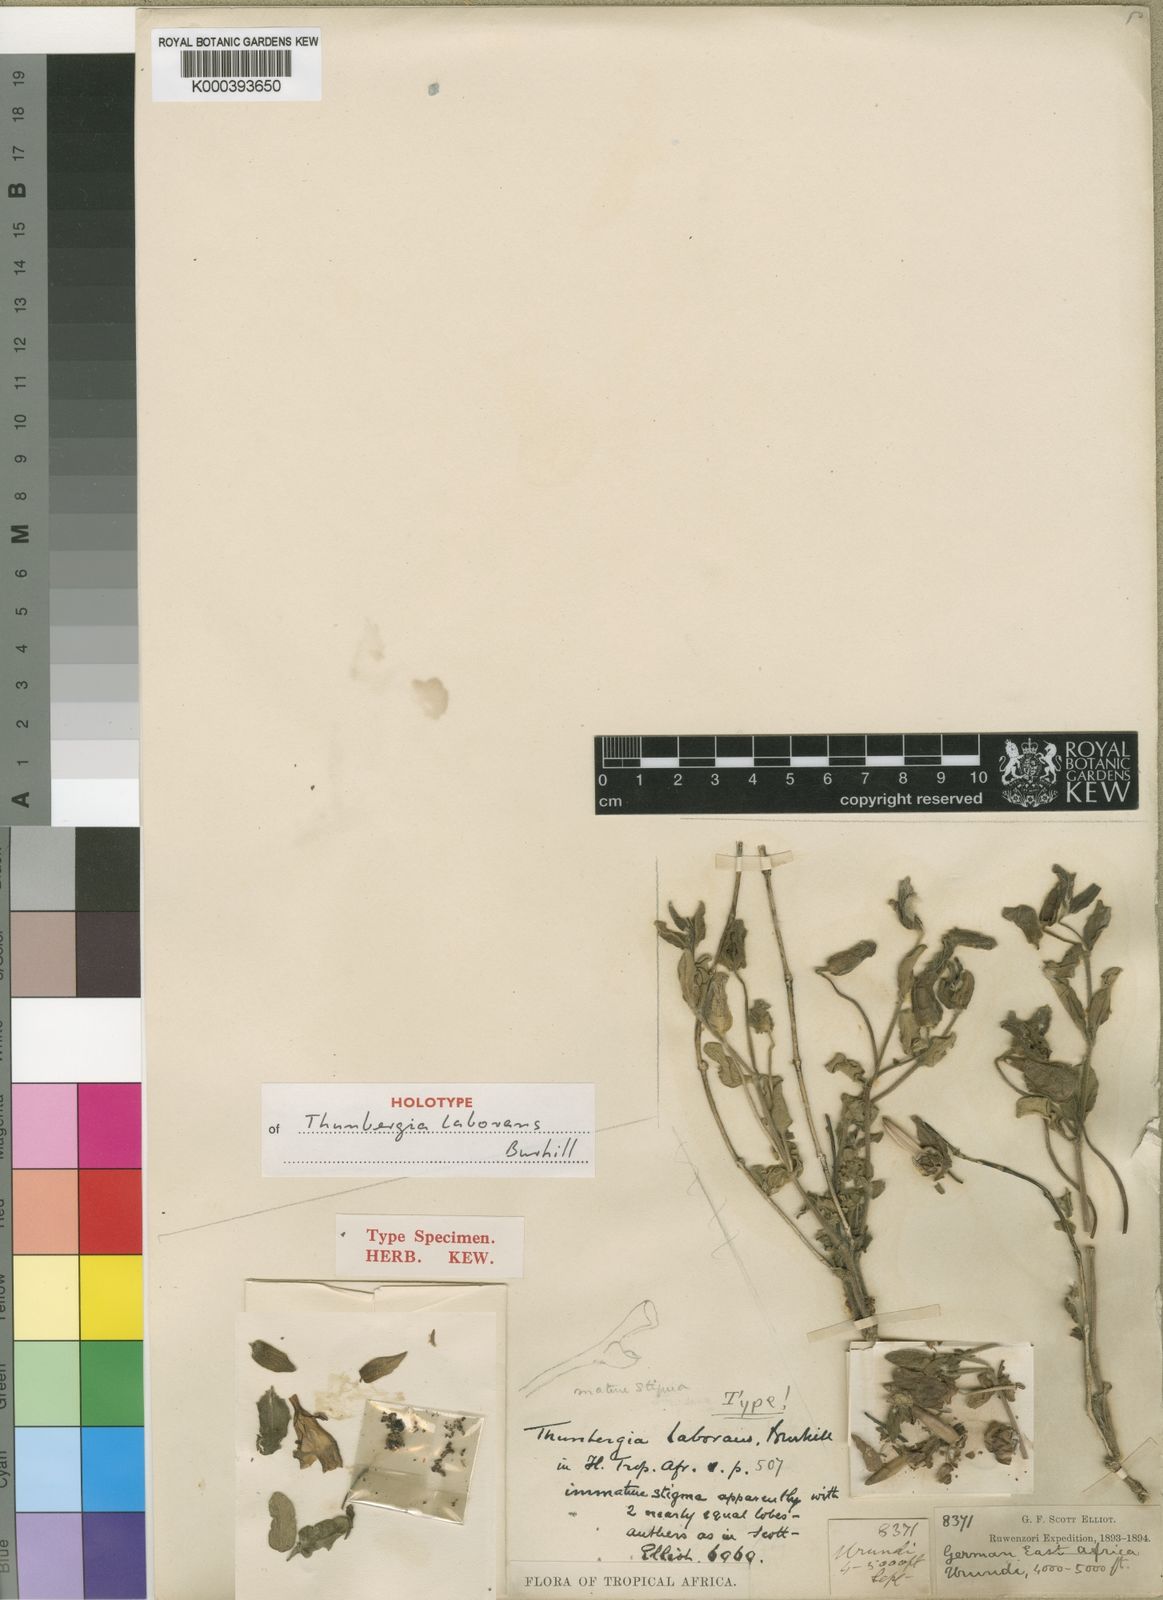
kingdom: Plantae
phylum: Tracheophyta
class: Magnoliopsida
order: Lamiales
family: Acanthaceae
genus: Thunbergia
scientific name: Thunbergia laborans
